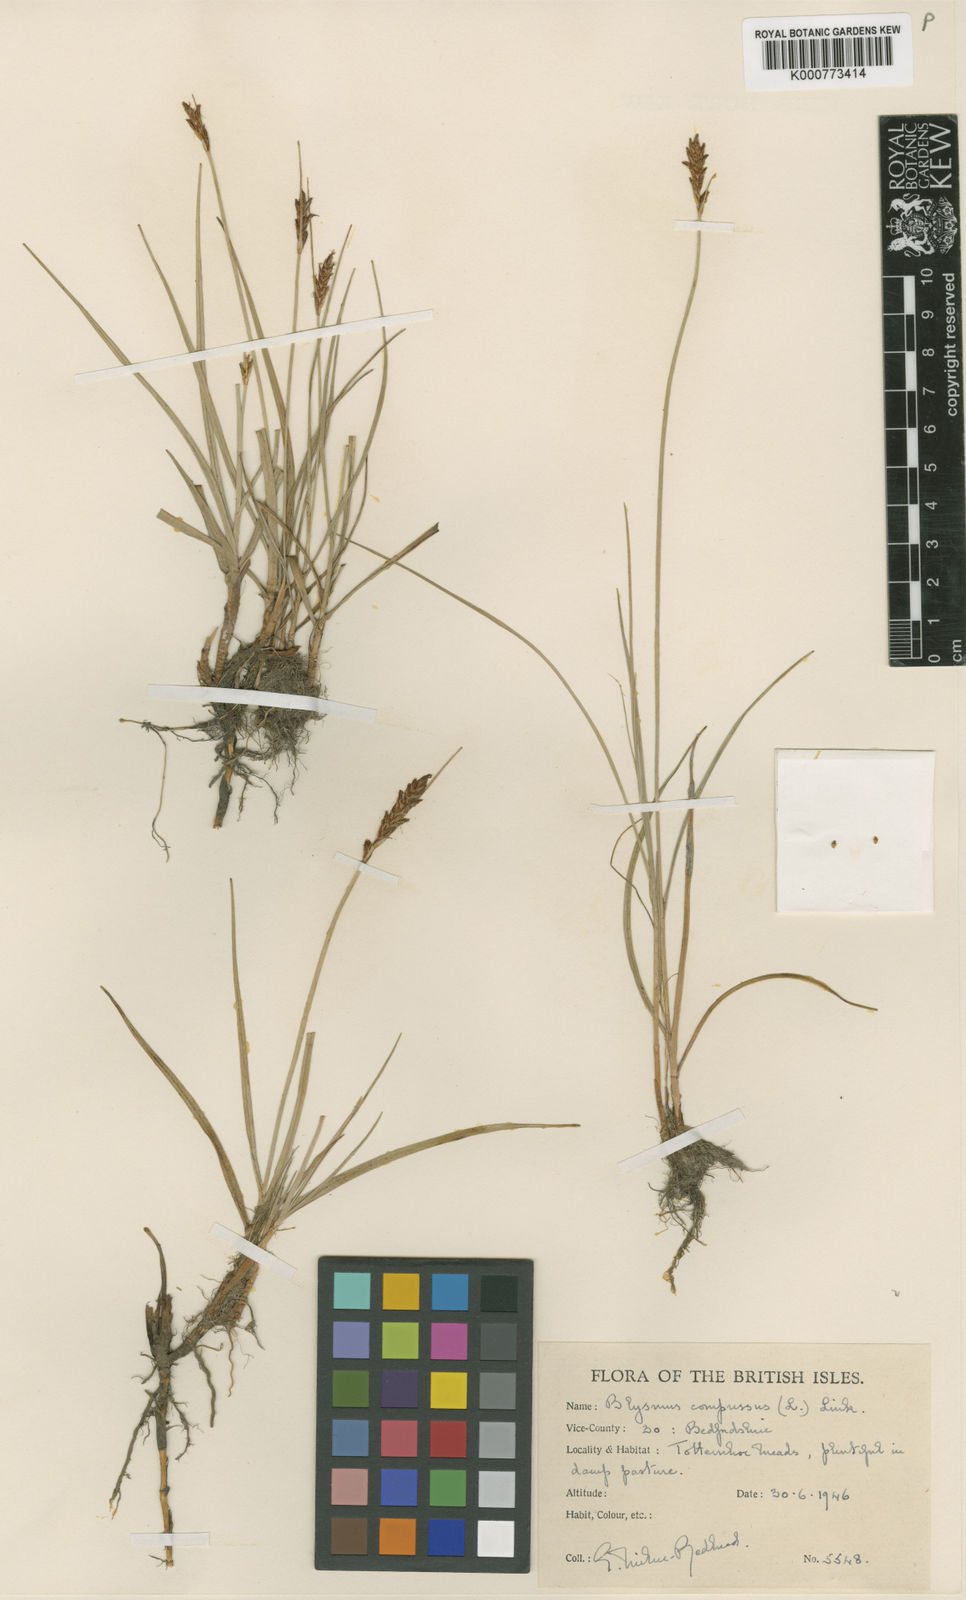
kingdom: Plantae
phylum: Tracheophyta
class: Liliopsida
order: Poales
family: Cyperaceae
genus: Blysmus
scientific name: Blysmus compressus
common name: Flat-sedge
